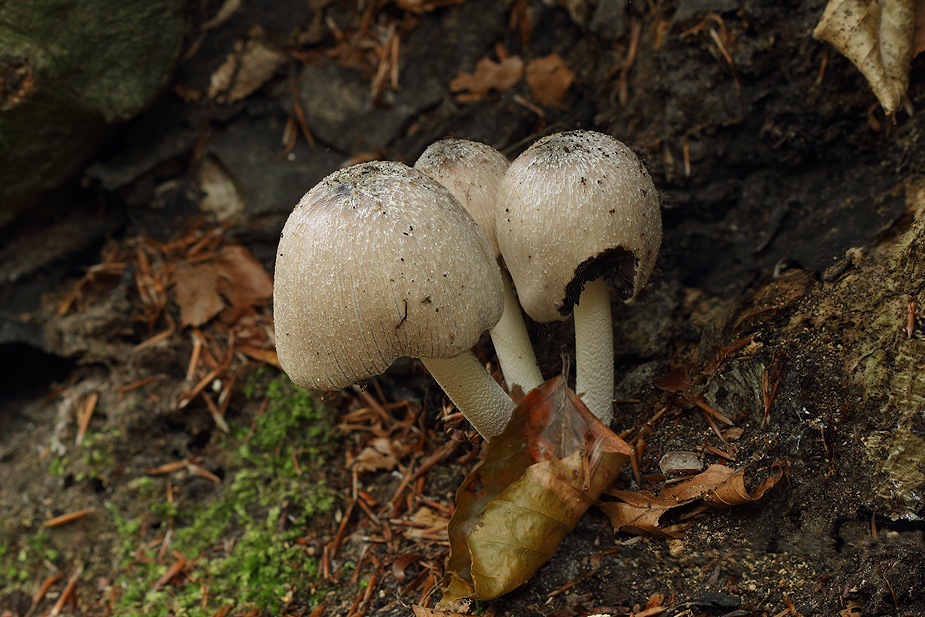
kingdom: Fungi
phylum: Basidiomycota
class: Agaricomycetes
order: Agaricales
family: Psathyrellaceae
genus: Coprinopsis
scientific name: Coprinopsis insignis
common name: stor blækhat
